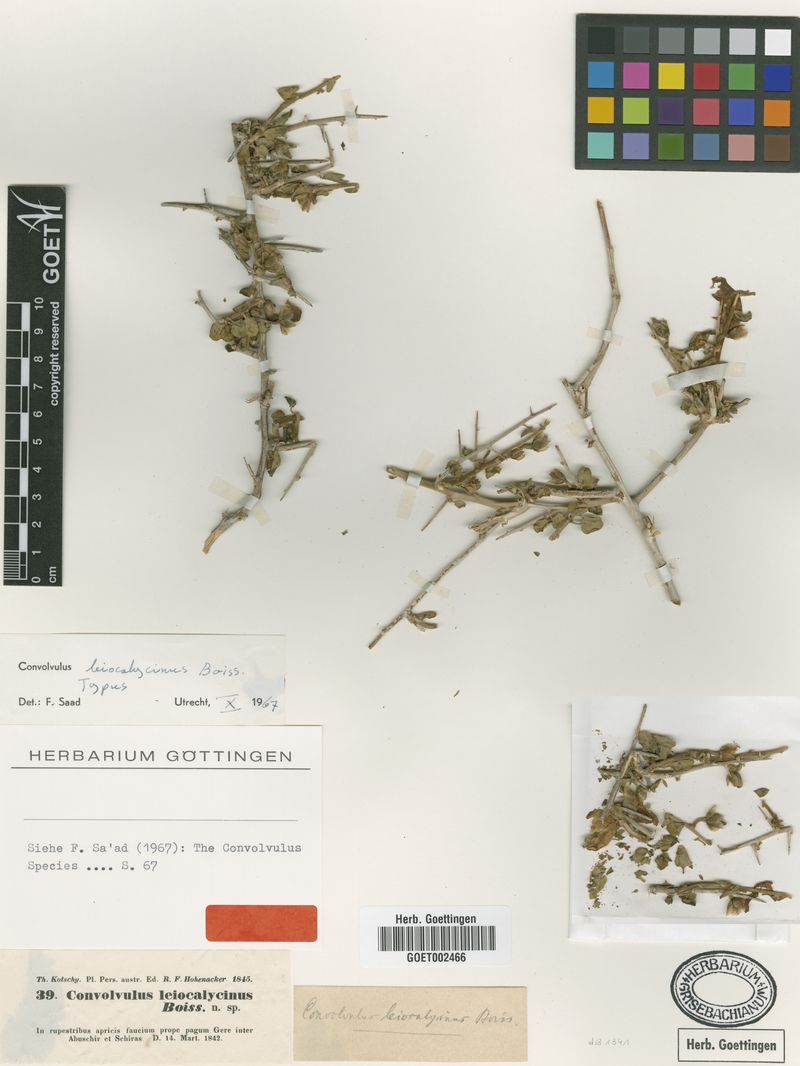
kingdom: Plantae
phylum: Tracheophyta
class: Magnoliopsida
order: Solanales
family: Convolvulaceae
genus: Convolvulus
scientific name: Convolvulus leiocalycinus
